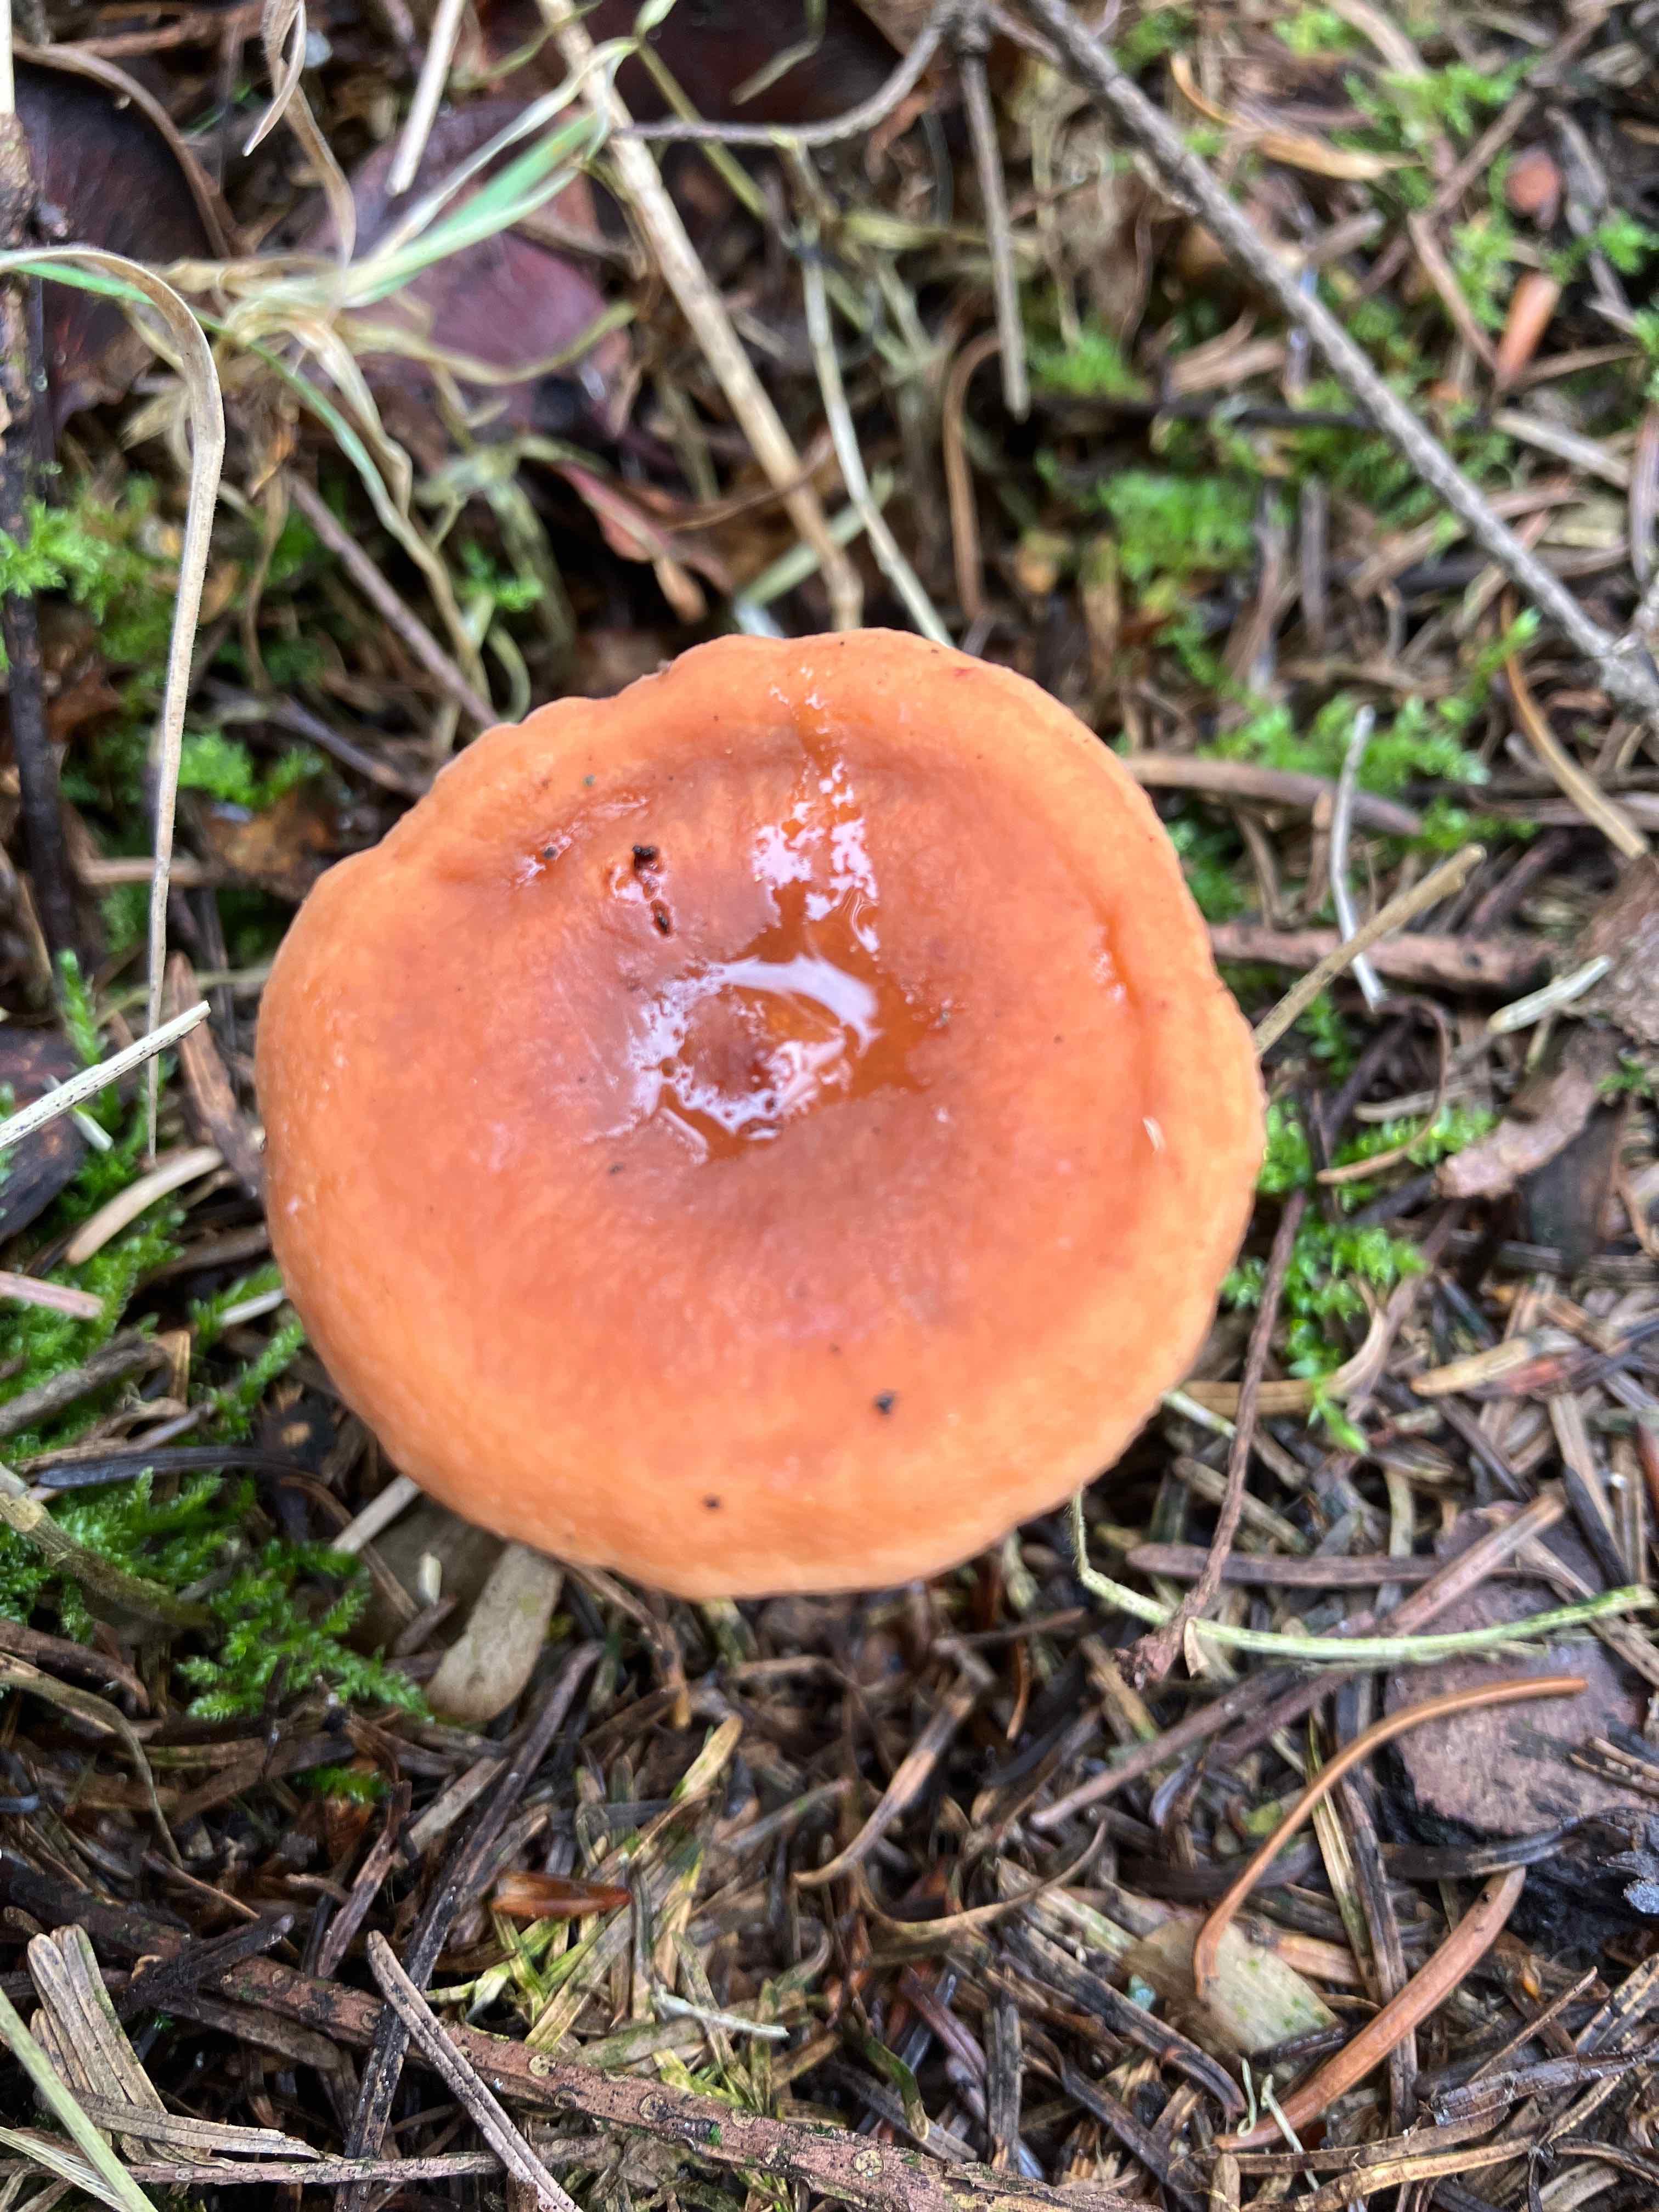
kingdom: Fungi
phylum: Basidiomycota
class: Agaricomycetes
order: Russulales
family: Russulaceae
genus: Lactarius
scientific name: Lactarius
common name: mælkehat
